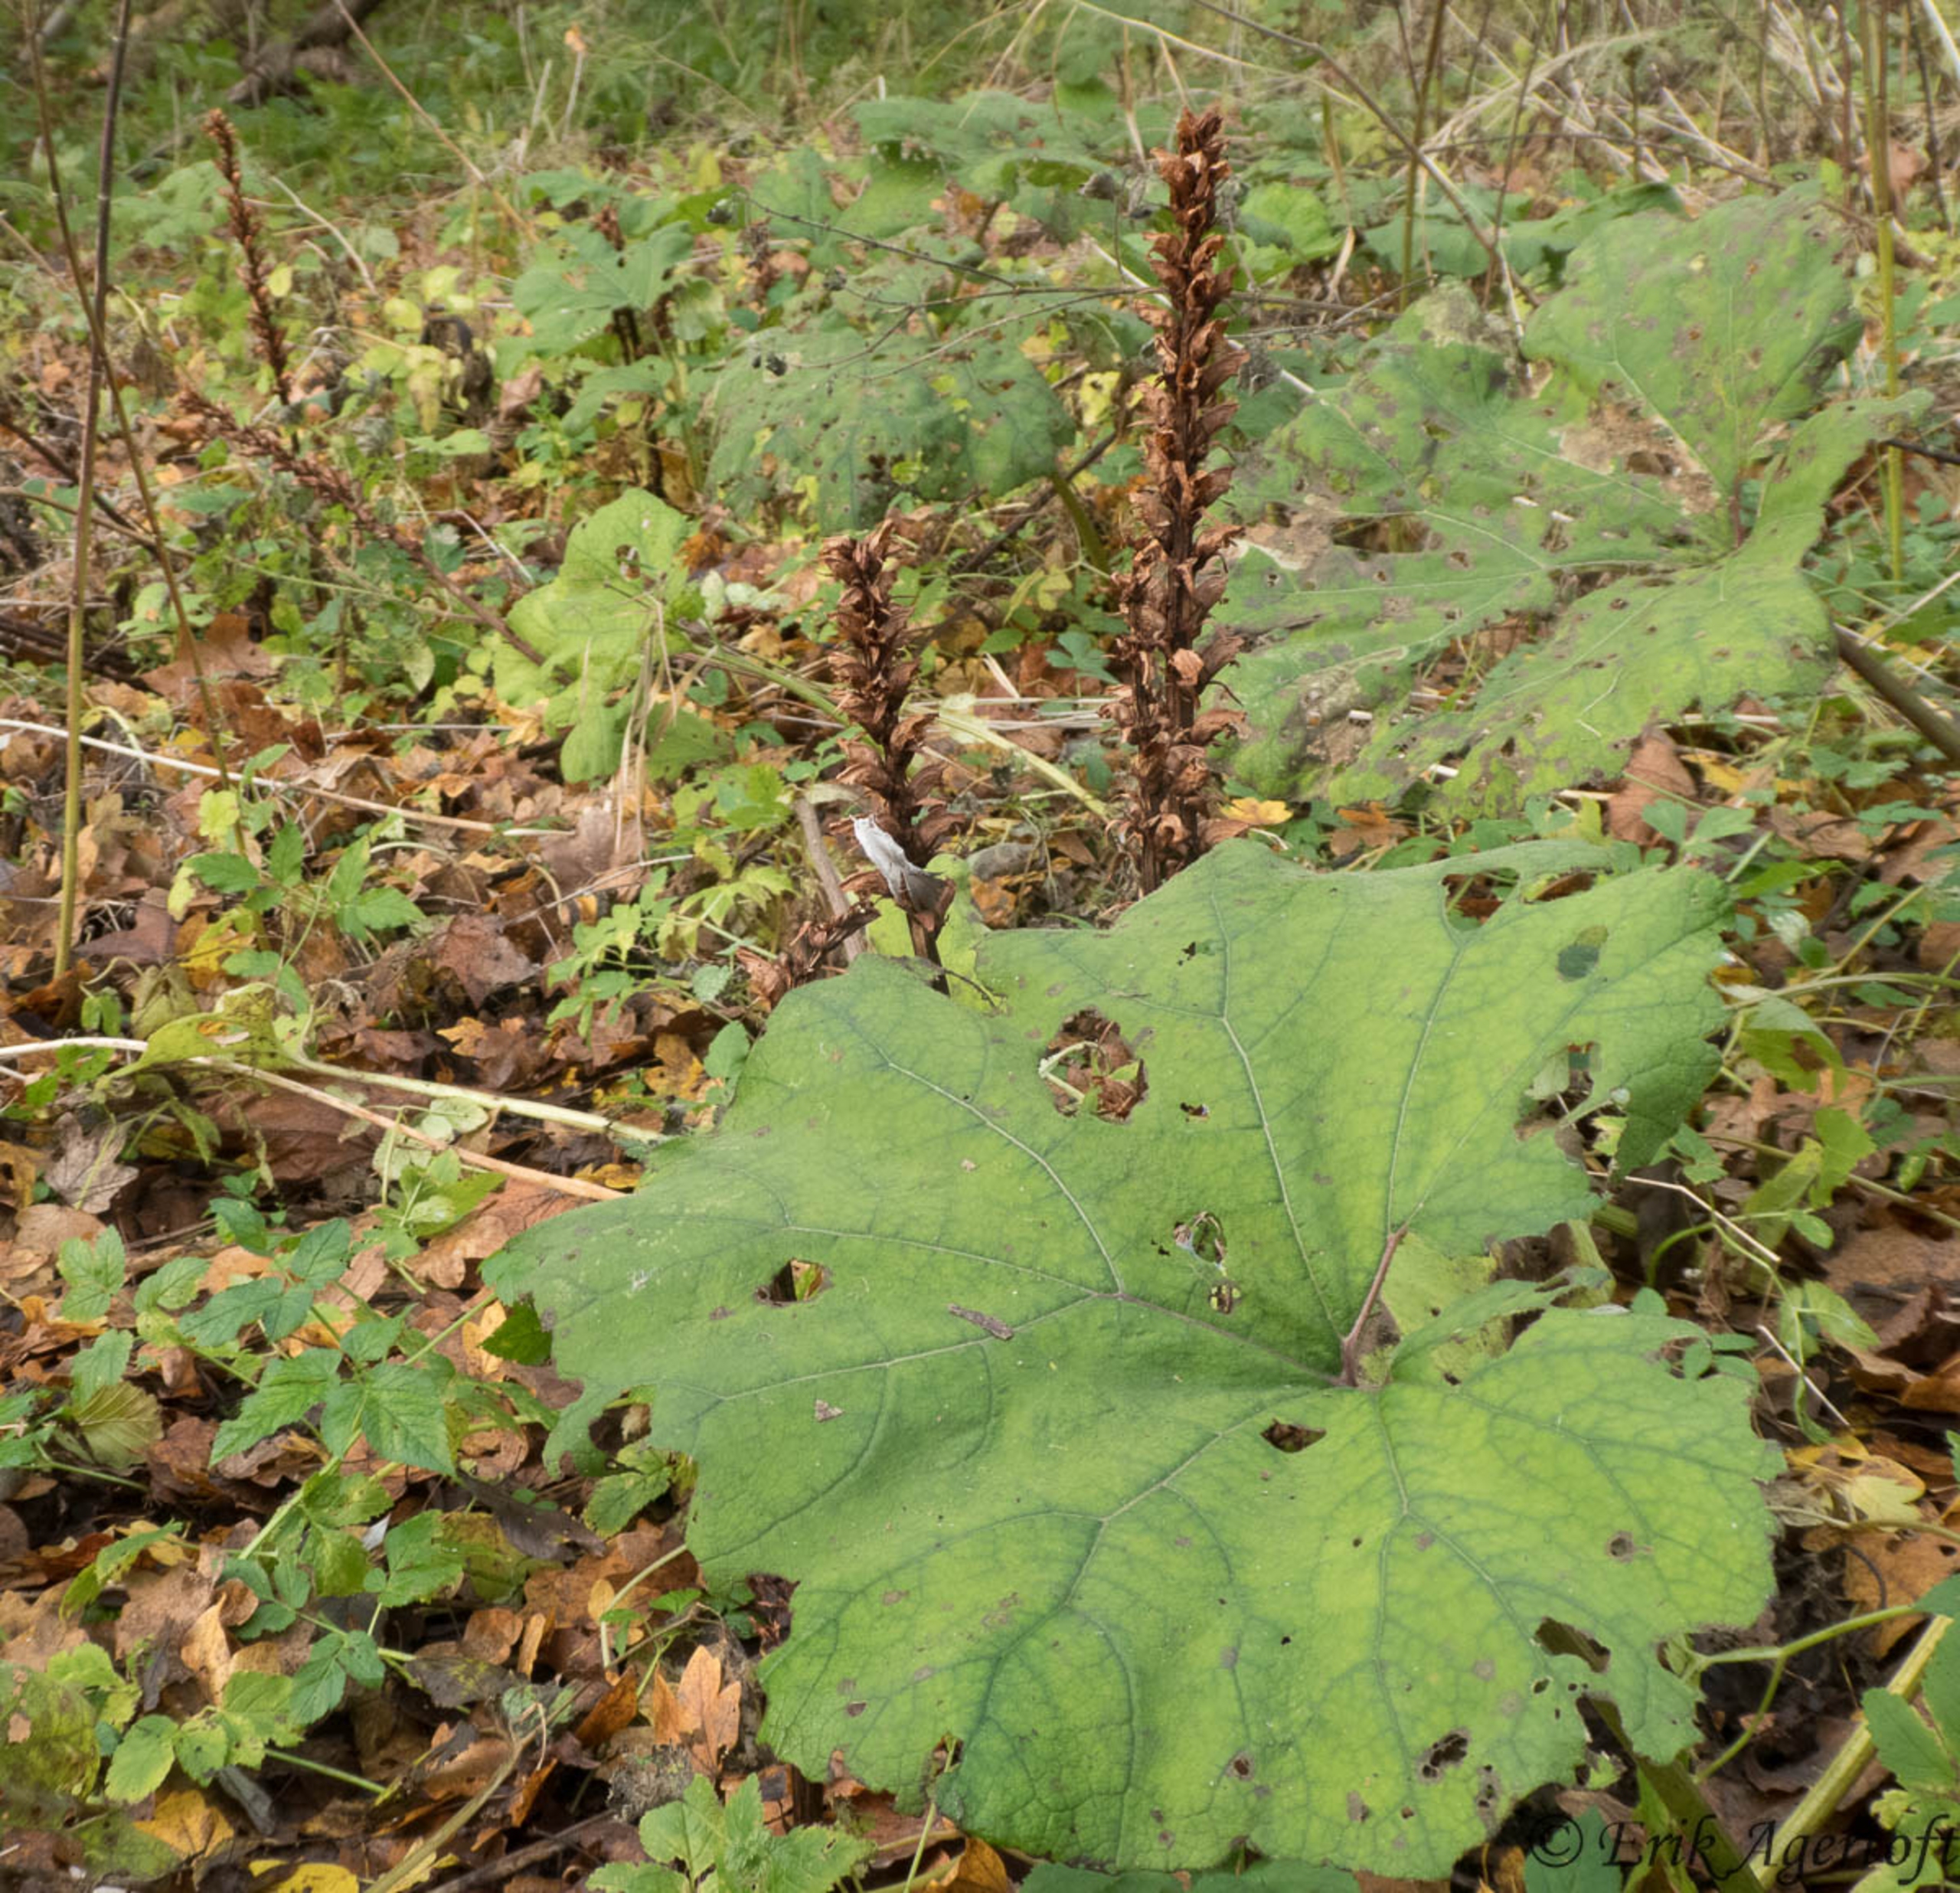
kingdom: Plantae
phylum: Tracheophyta
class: Magnoliopsida
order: Lamiales
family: Orobanchaceae
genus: Orobanche
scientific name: Orobanche flava
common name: Gul gyvelkvæler
